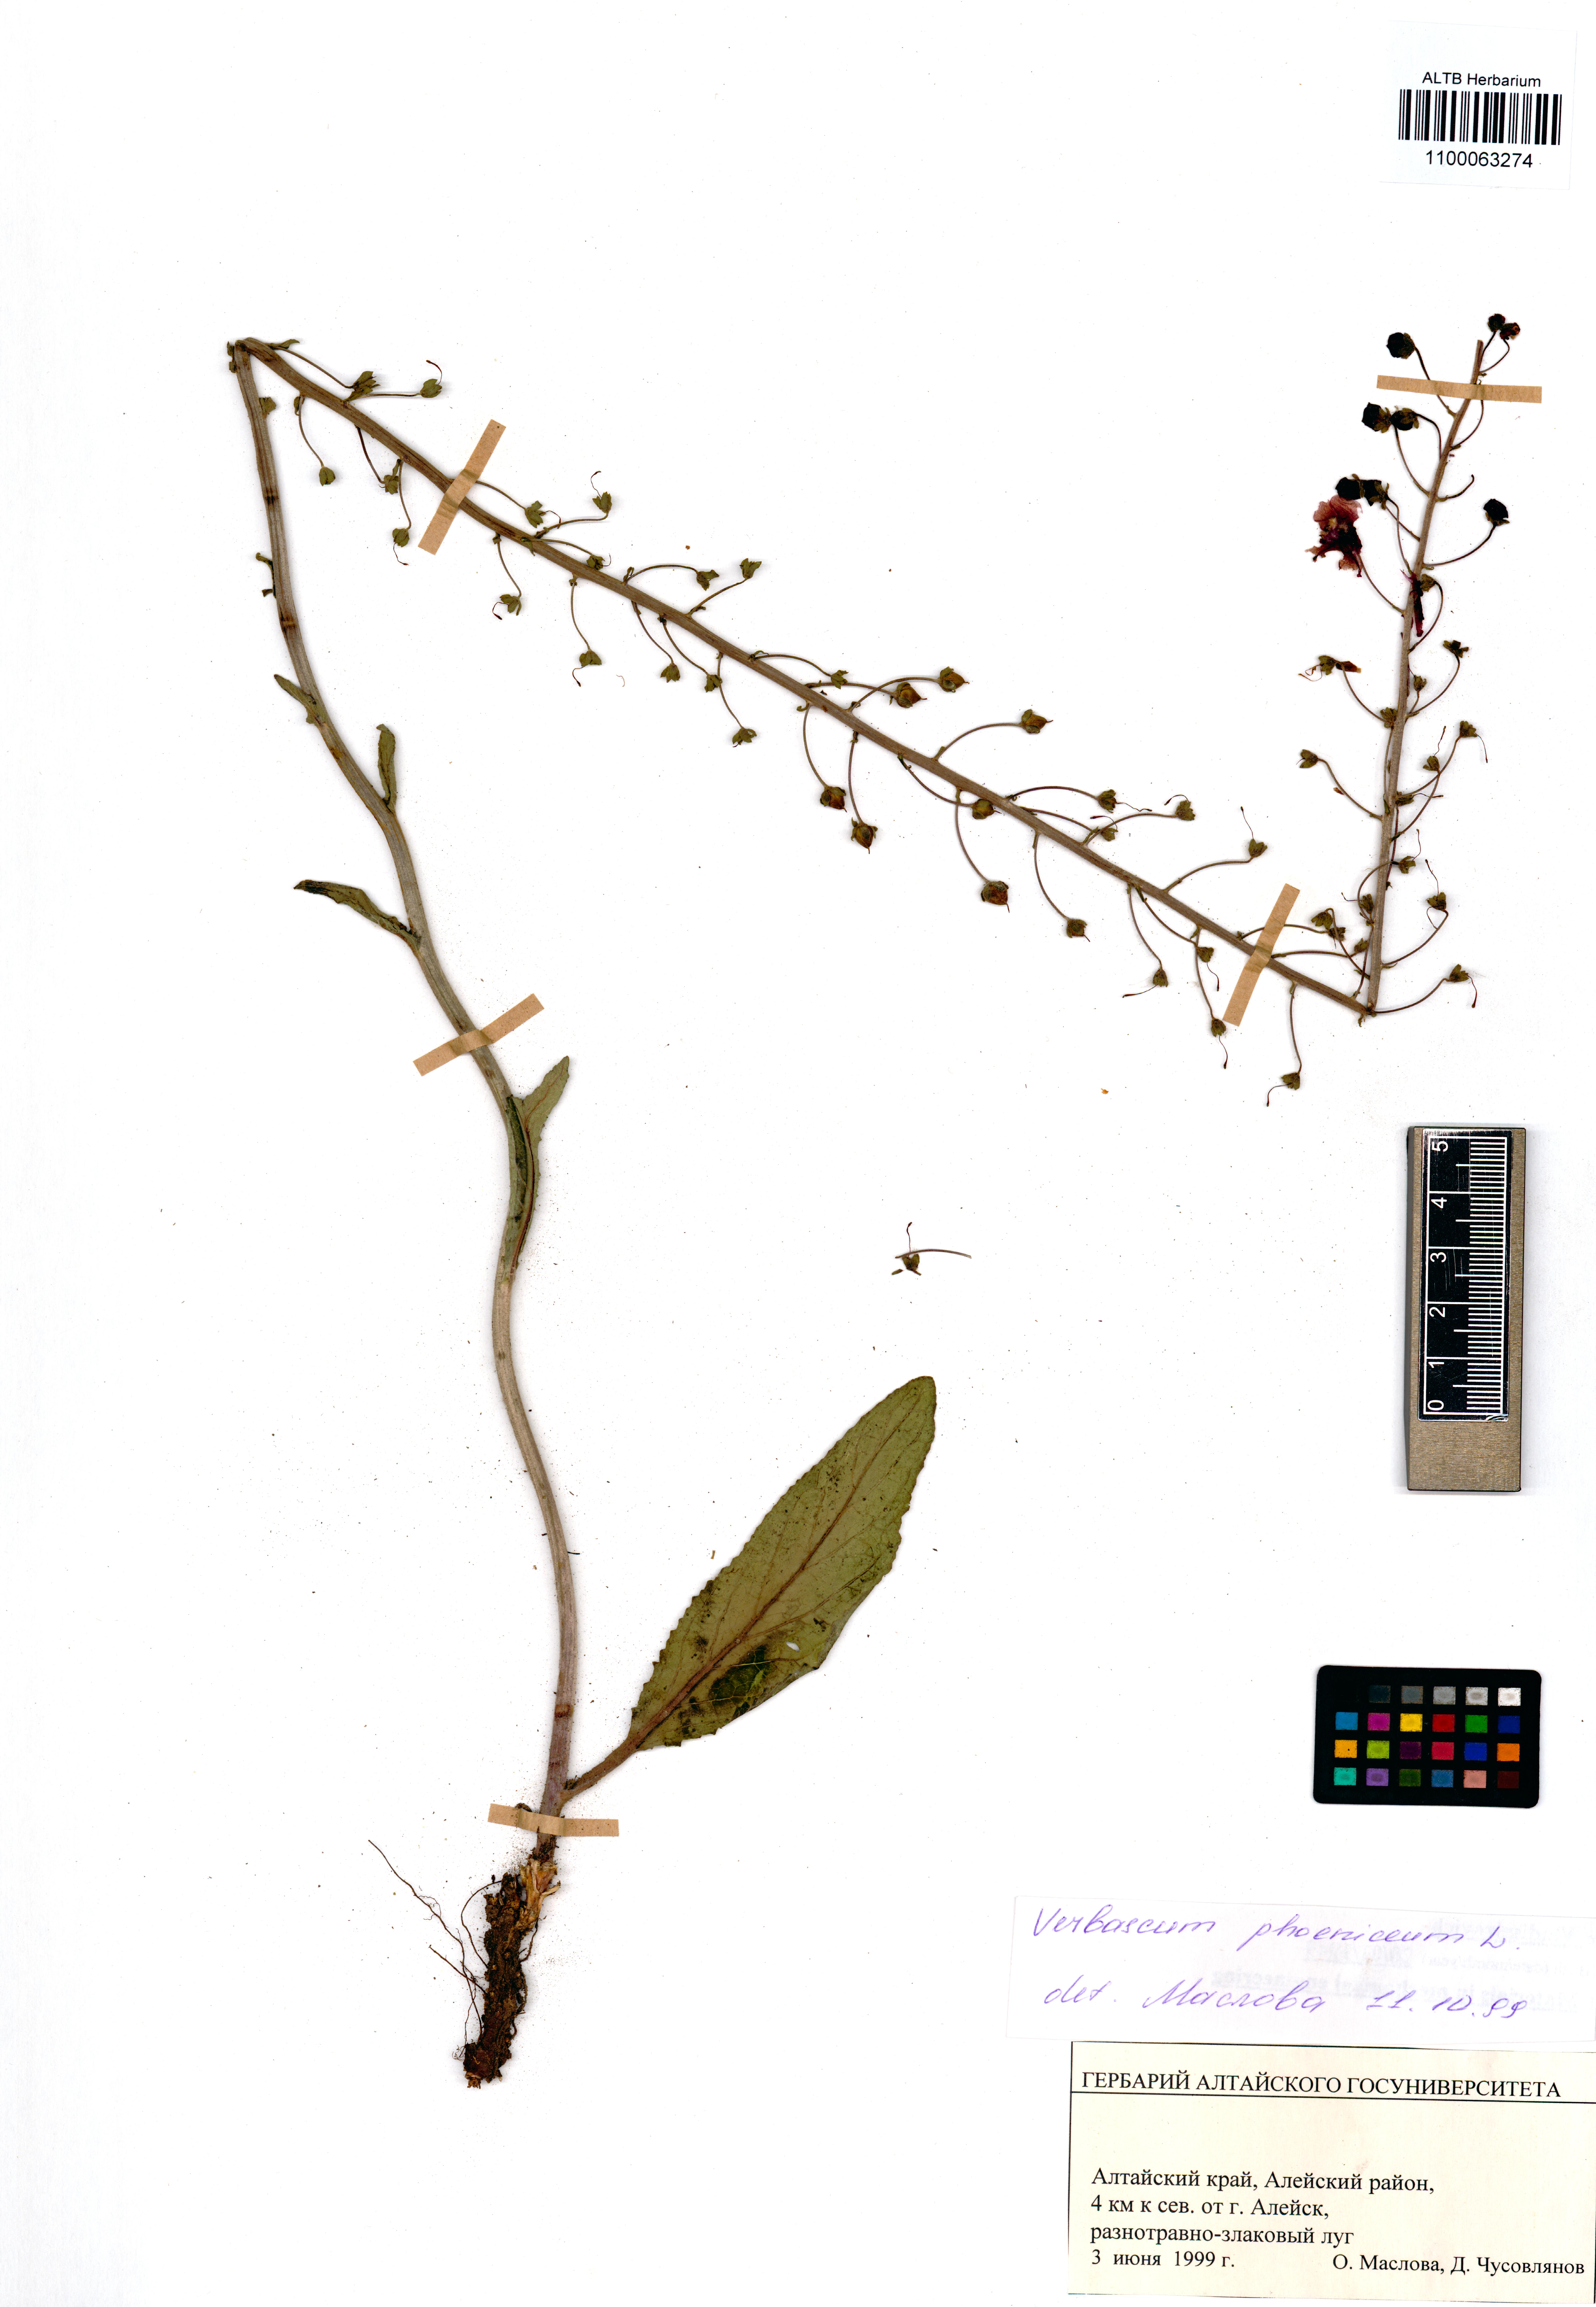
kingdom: Plantae
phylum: Tracheophyta
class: Magnoliopsida
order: Lamiales
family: Scrophulariaceae
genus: Verbascum
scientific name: Verbascum phoeniceum
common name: Purple mullein
